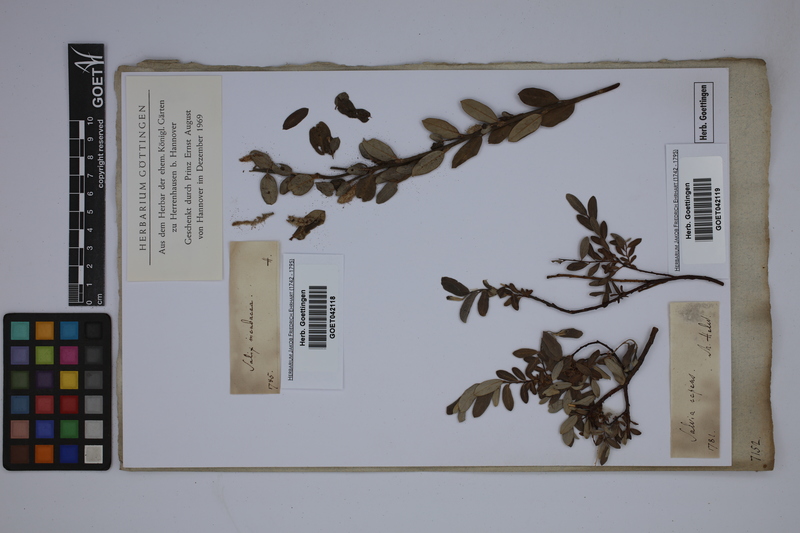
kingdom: Plantae
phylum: Tracheophyta
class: Magnoliopsida
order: Malpighiales
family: Salicaceae
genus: Salix
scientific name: Salix repens
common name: Creeping willow
